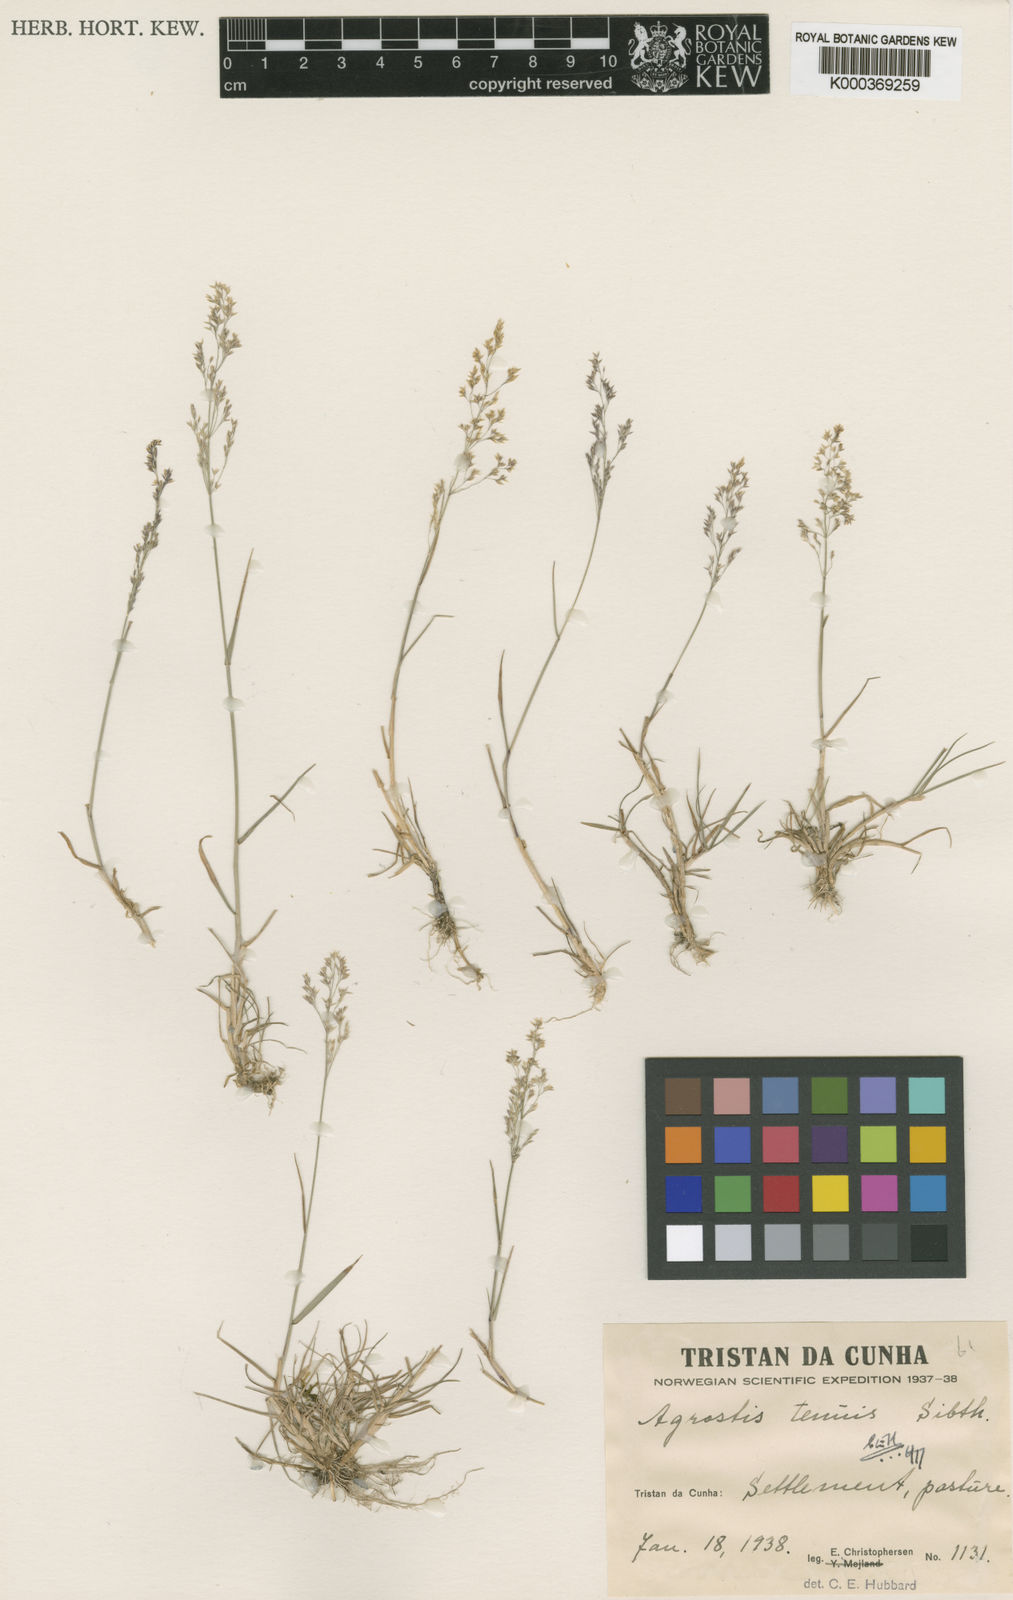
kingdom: Plantae
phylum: Tracheophyta
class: Liliopsida
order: Poales
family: Poaceae
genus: Agrostis
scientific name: Agrostis capillaris
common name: Colonial bentgrass
